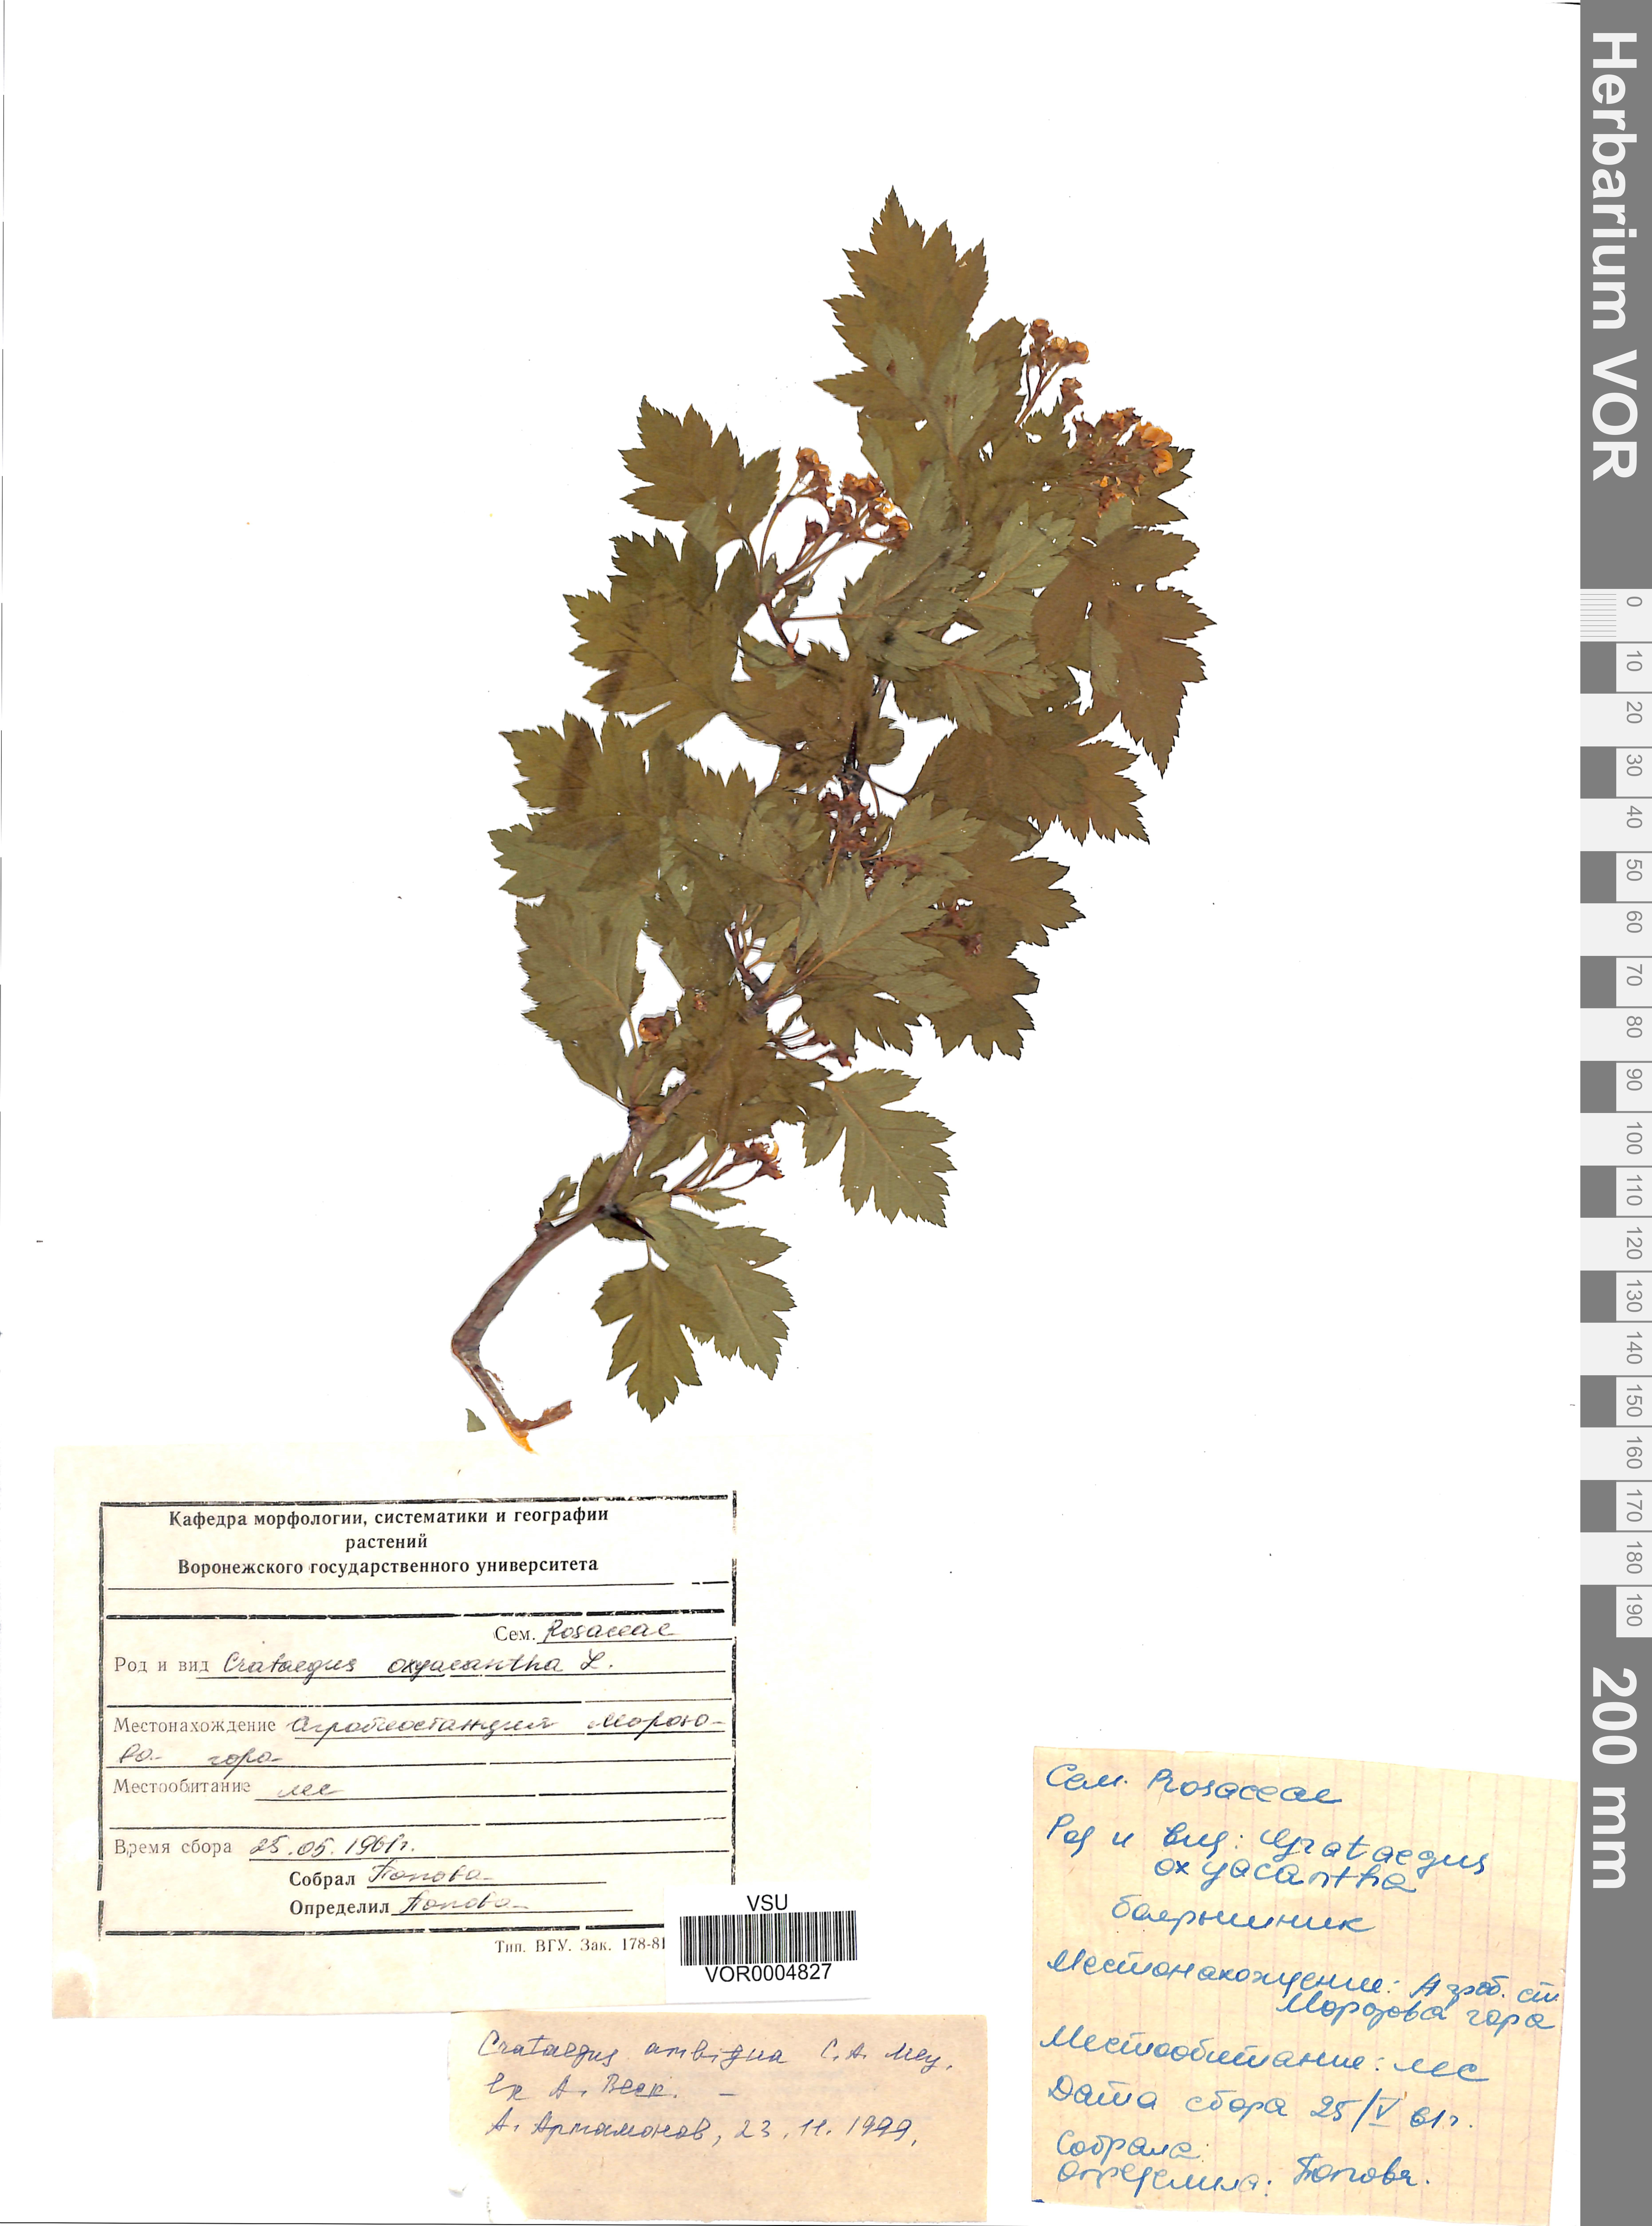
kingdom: Plantae
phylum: Tracheophyta
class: Magnoliopsida
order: Rosales
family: Rosaceae
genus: Crataegus
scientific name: Crataegus ambigua
